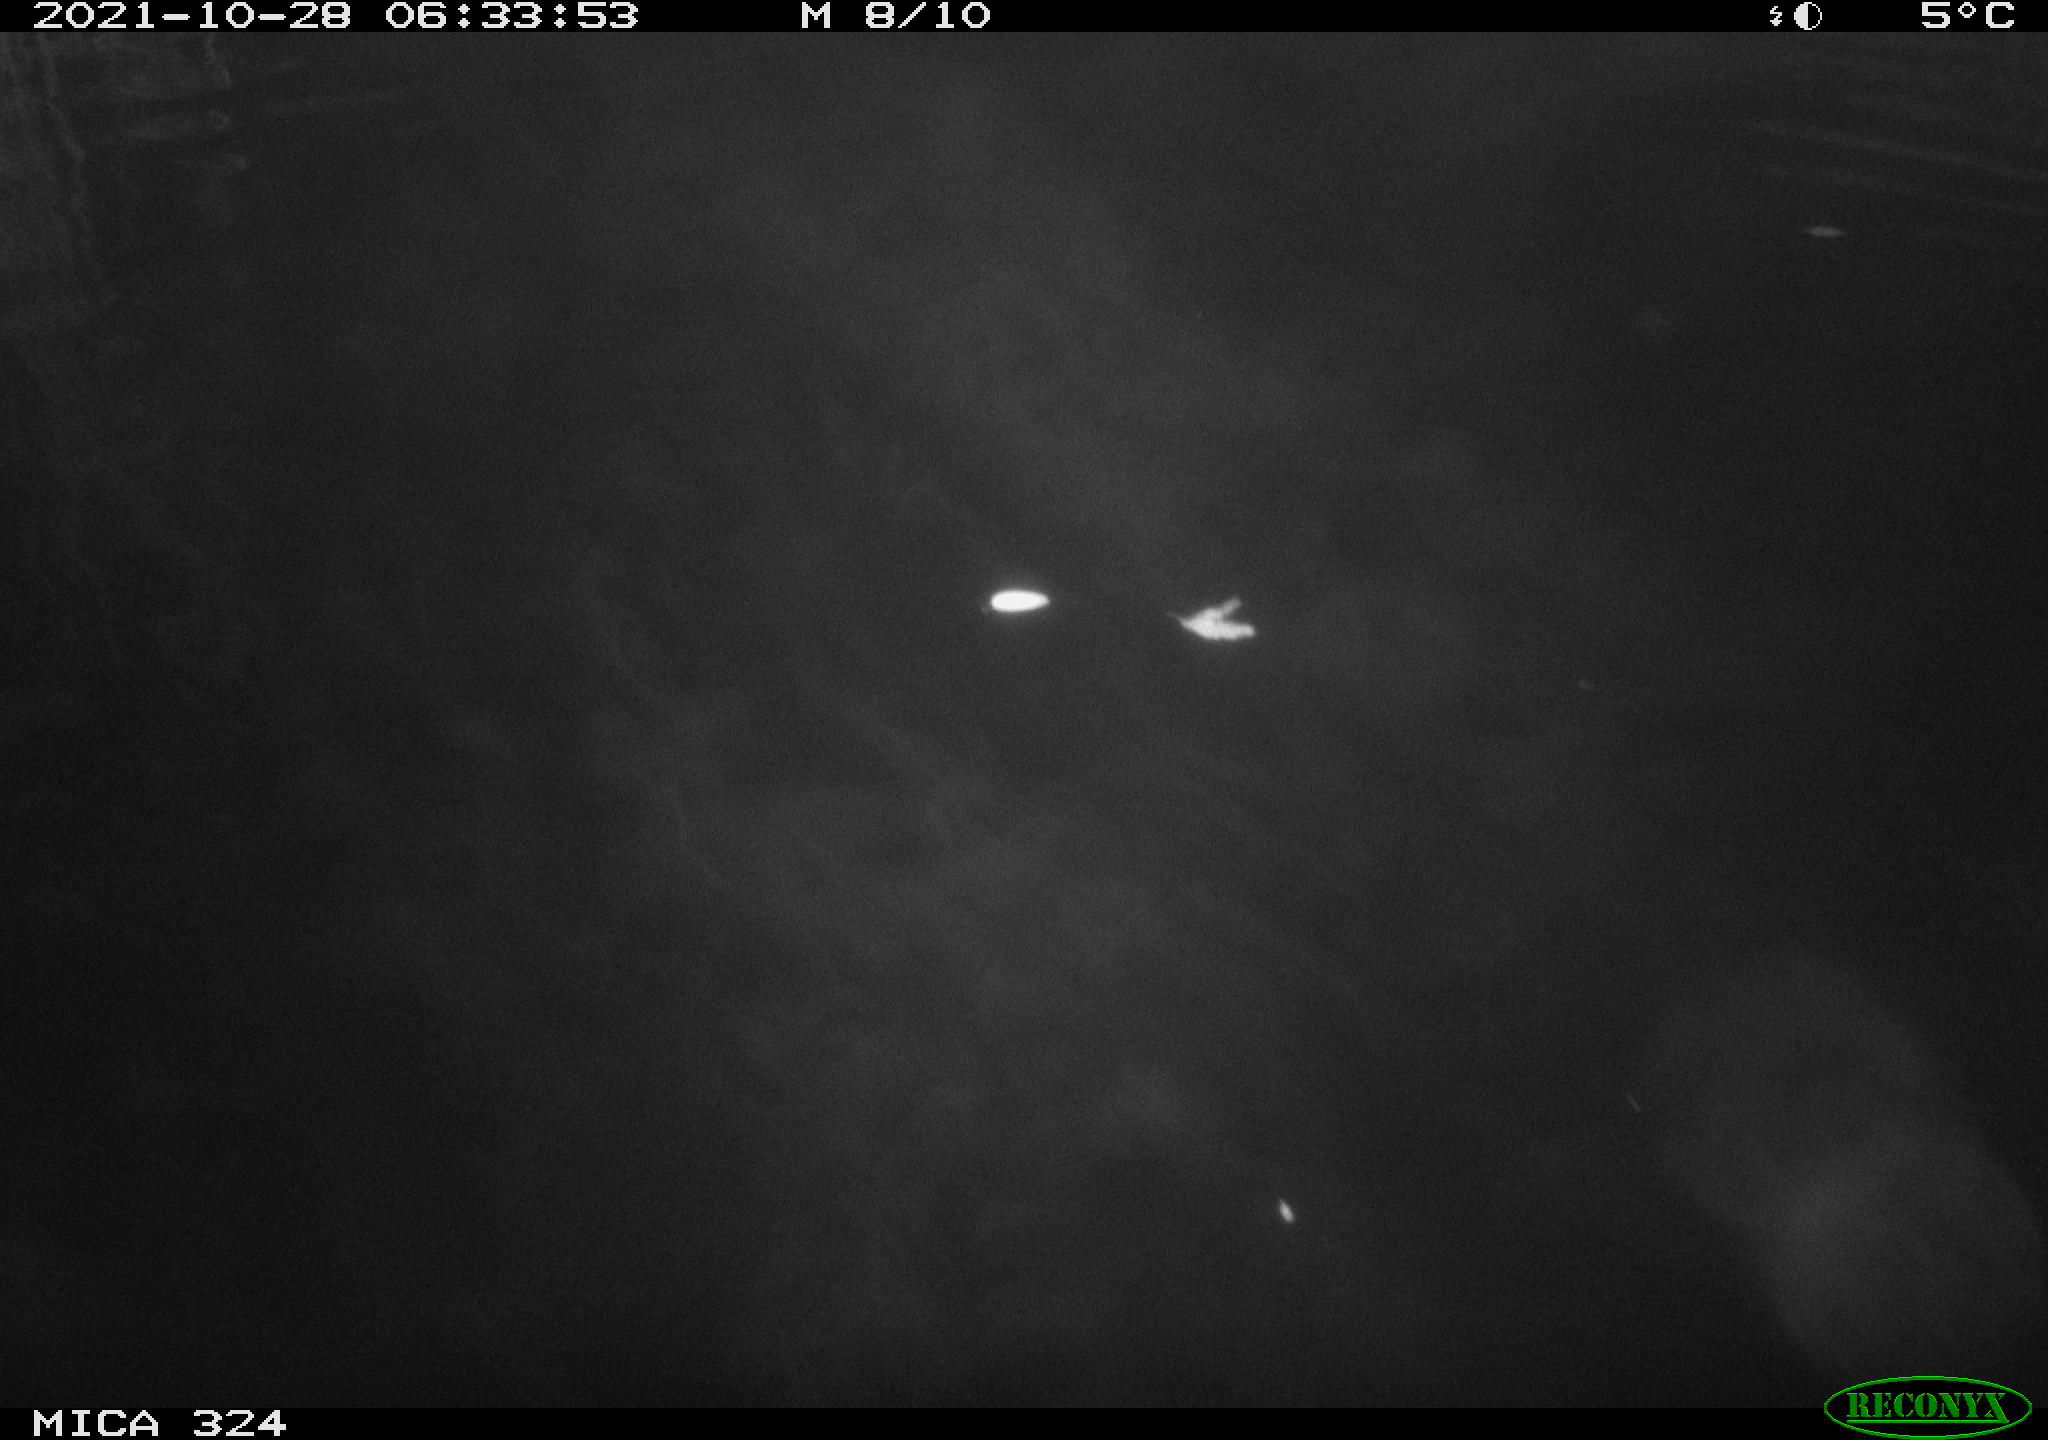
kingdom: Animalia
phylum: Chordata
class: Mammalia
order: Rodentia
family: Cricetidae
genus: Ondatra
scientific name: Ondatra zibethicus
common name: Muskrat
